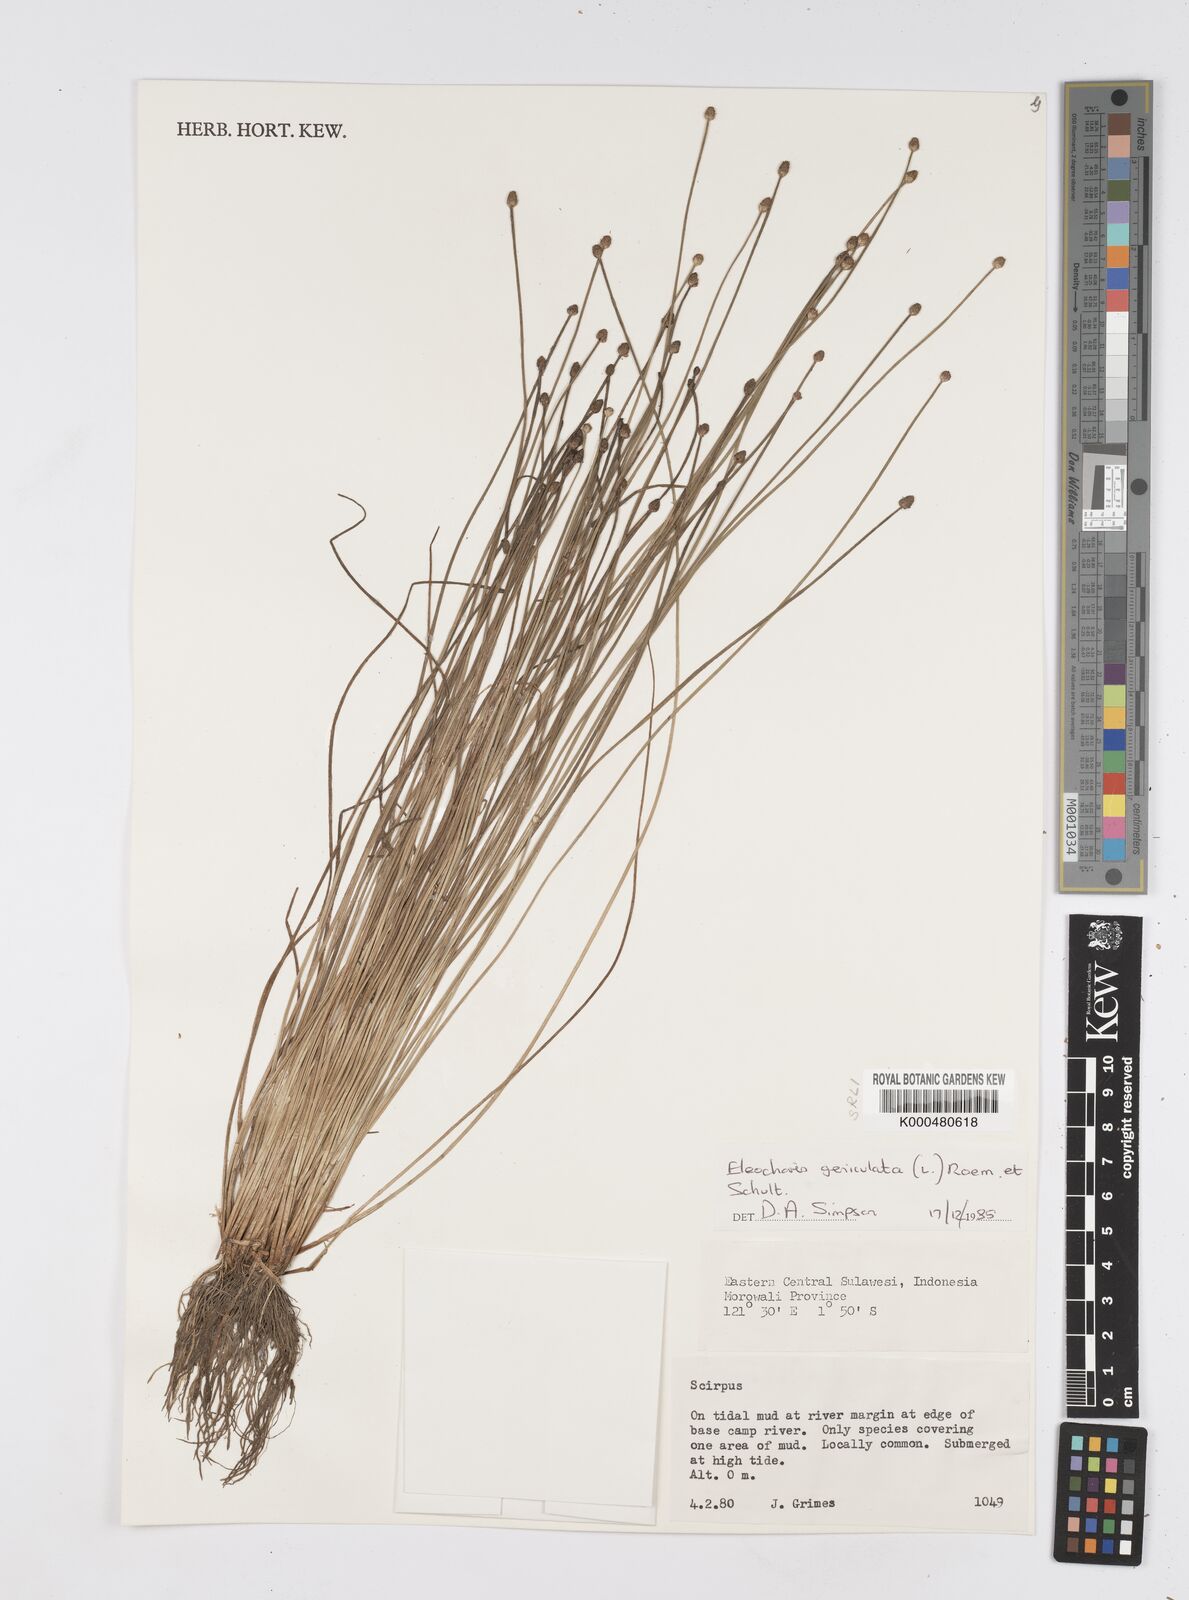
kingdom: Plantae
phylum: Tracheophyta
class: Liliopsida
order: Poales
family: Cyperaceae
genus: Eleocharis
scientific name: Eleocharis geniculata
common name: Canada spikesedge
